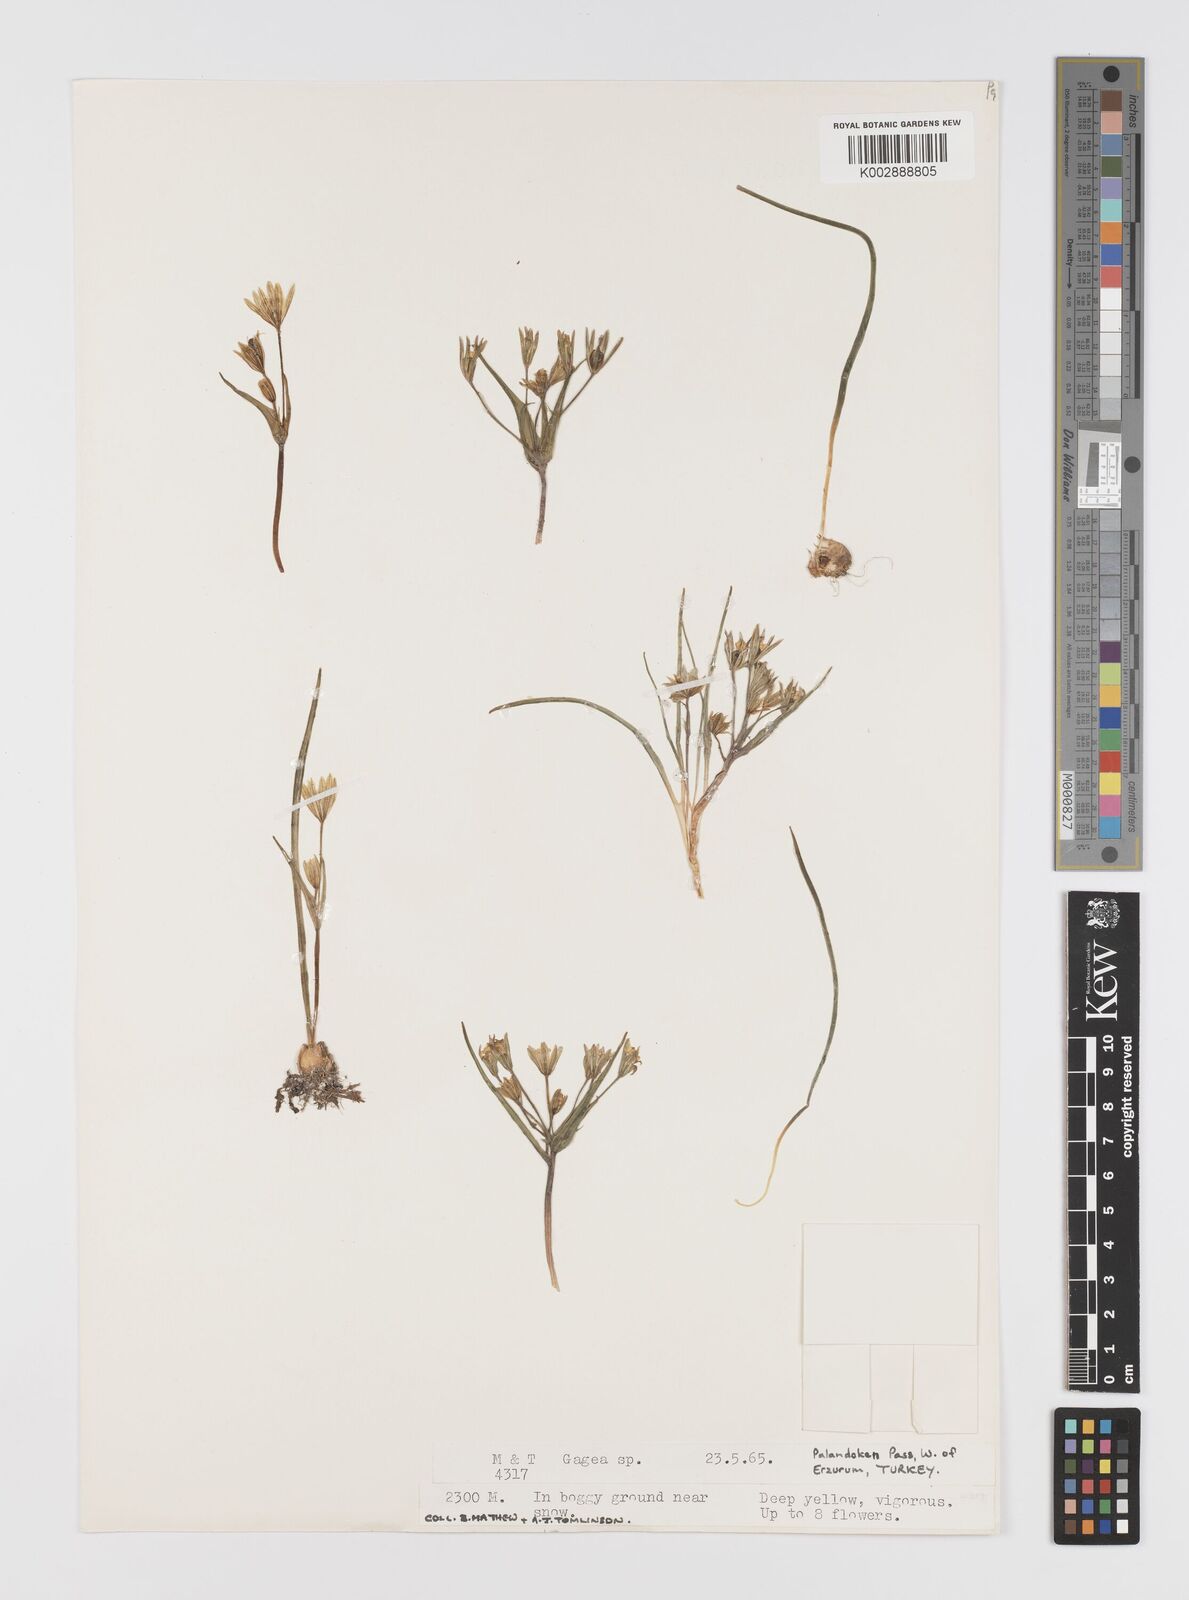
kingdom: Plantae
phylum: Tracheophyta
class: Liliopsida
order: Liliales
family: Liliaceae
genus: Gagea
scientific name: Gagea
